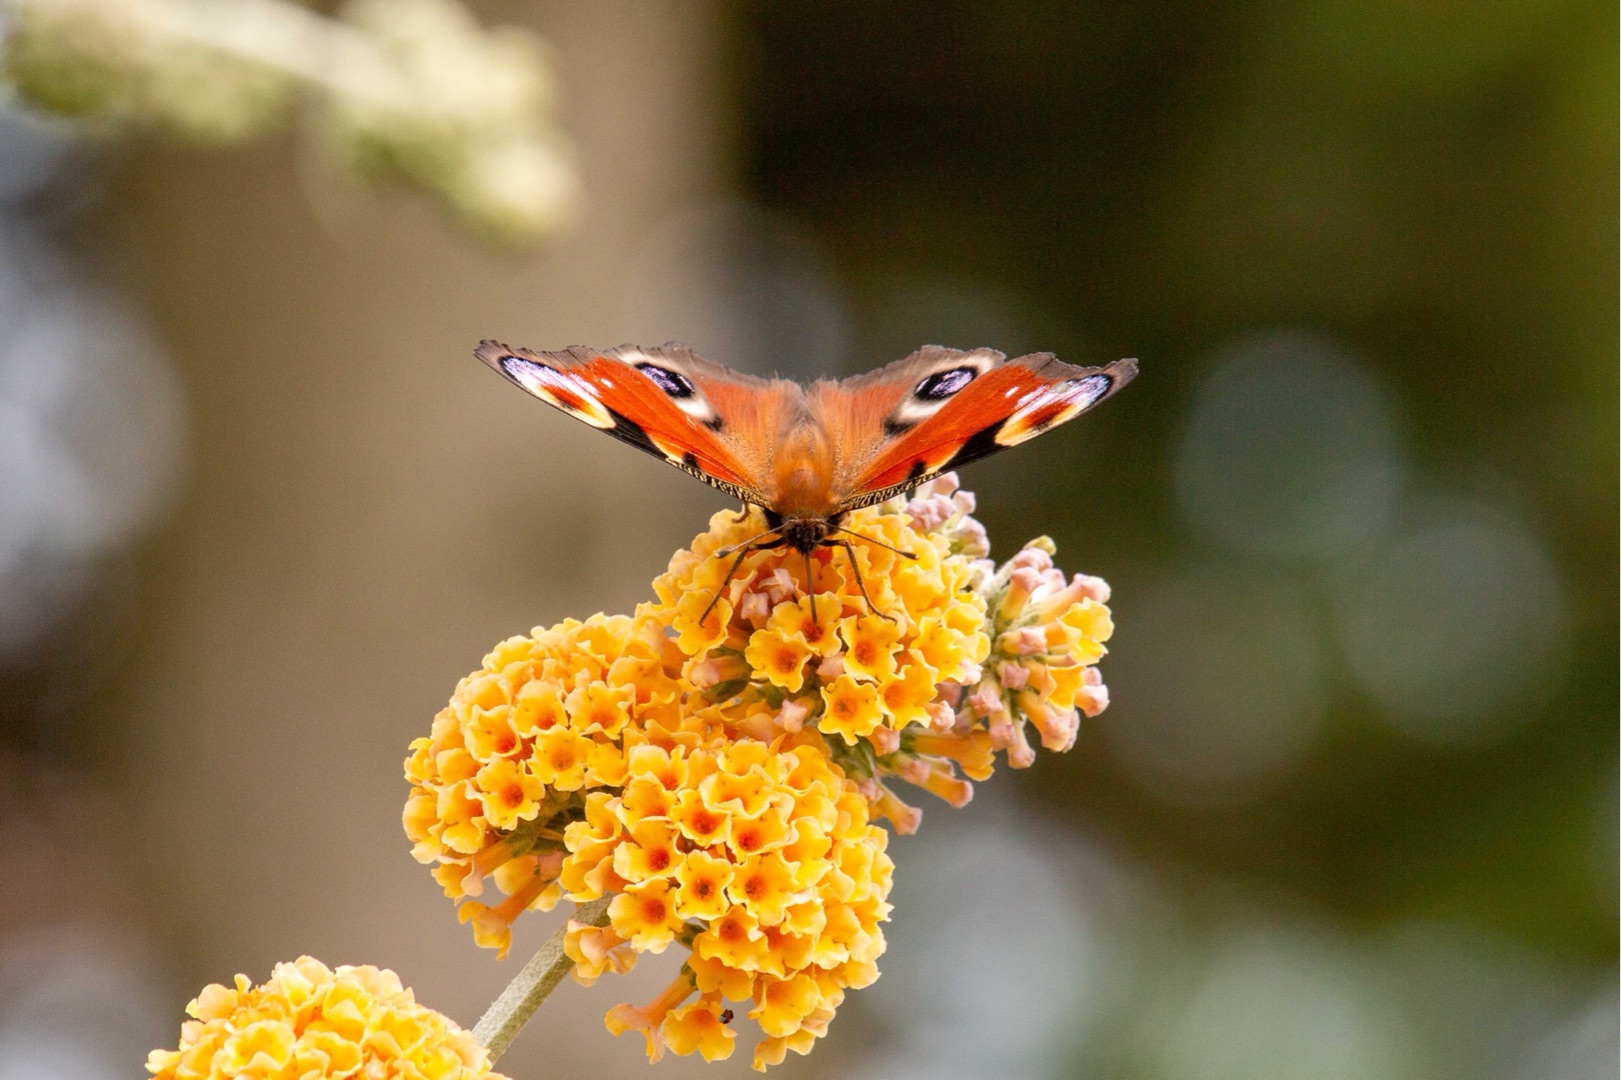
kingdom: Animalia
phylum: Arthropoda
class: Insecta
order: Lepidoptera
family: Nymphalidae
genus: Aglais
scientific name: Aglais io
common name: Dagpåfugleøje
